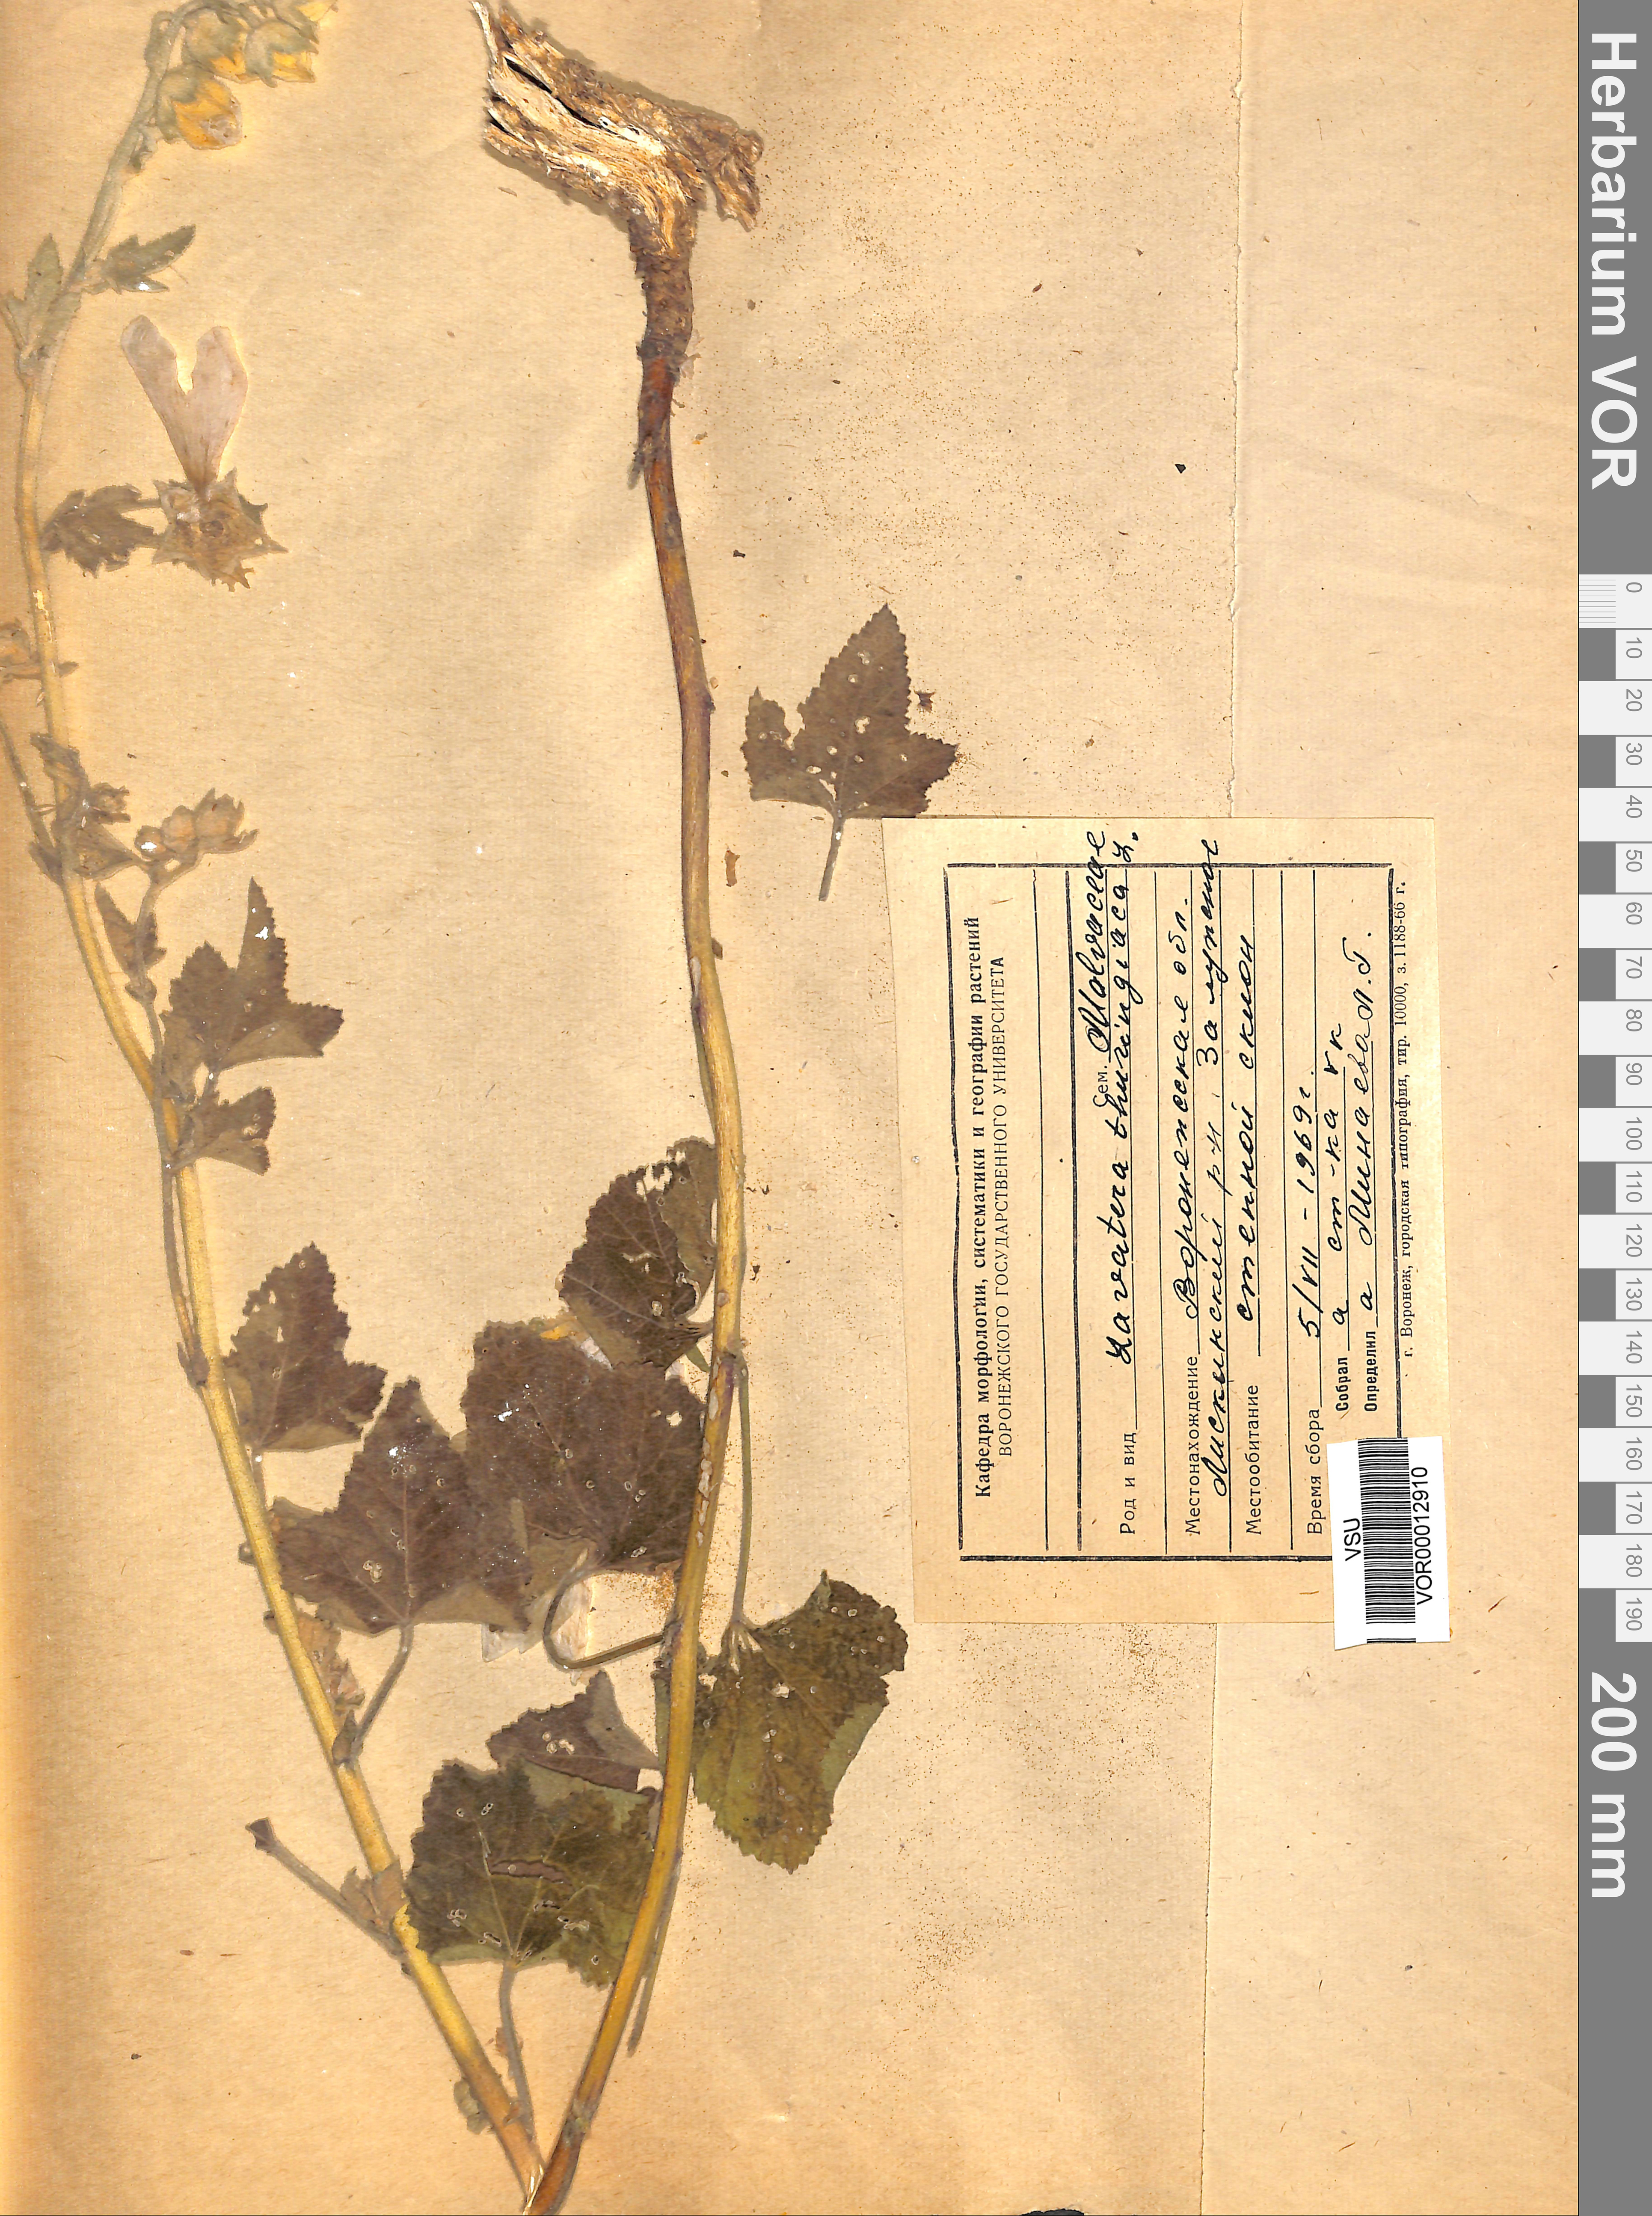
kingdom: Plantae
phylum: Tracheophyta
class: Magnoliopsida
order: Malvales
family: Malvaceae
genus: Malva
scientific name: Malva thuringiaca
